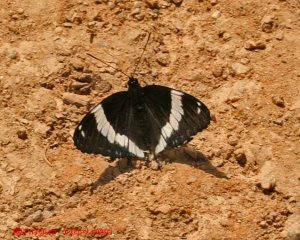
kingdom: Animalia
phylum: Arthropoda
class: Insecta
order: Lepidoptera
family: Nymphalidae
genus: Limenitis
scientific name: Limenitis arthemis
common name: Red-spotted Admiral
